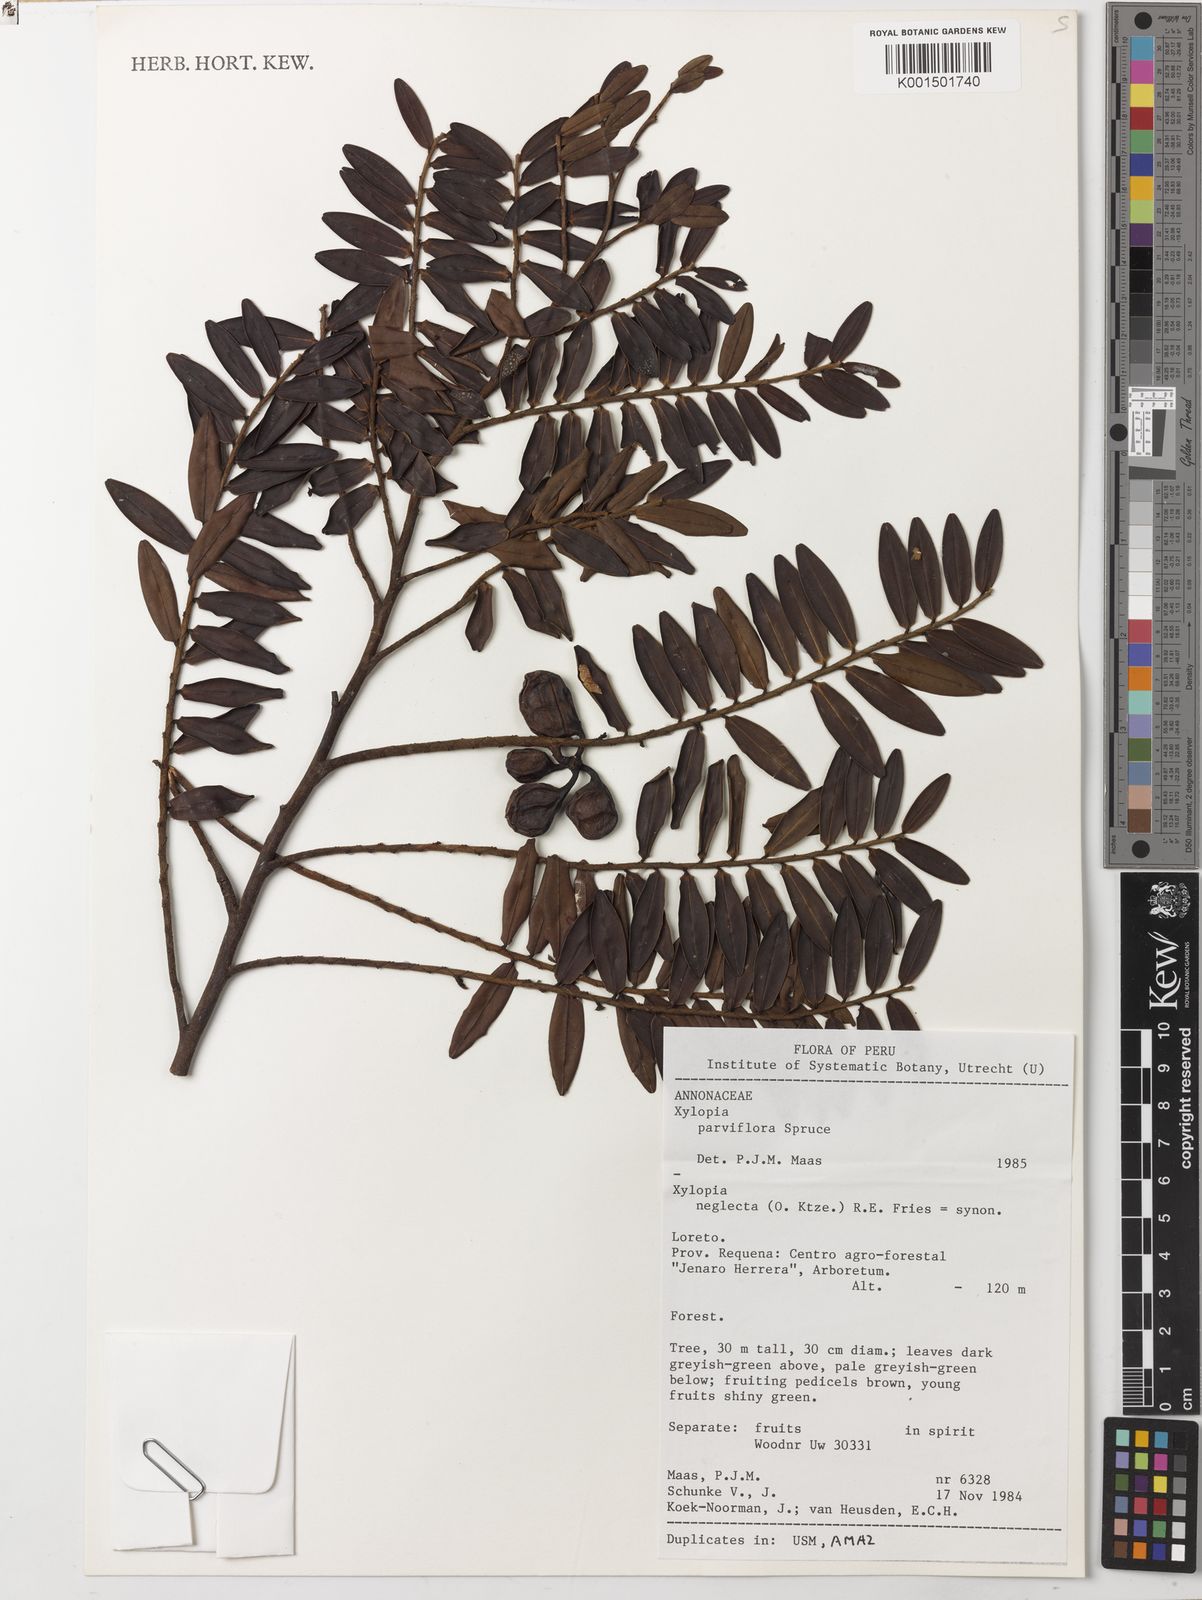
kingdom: Plantae
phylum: Tracheophyta
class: Magnoliopsida
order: Magnoliales
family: Annonaceae
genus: Xylopia
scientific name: Xylopia neglecta
